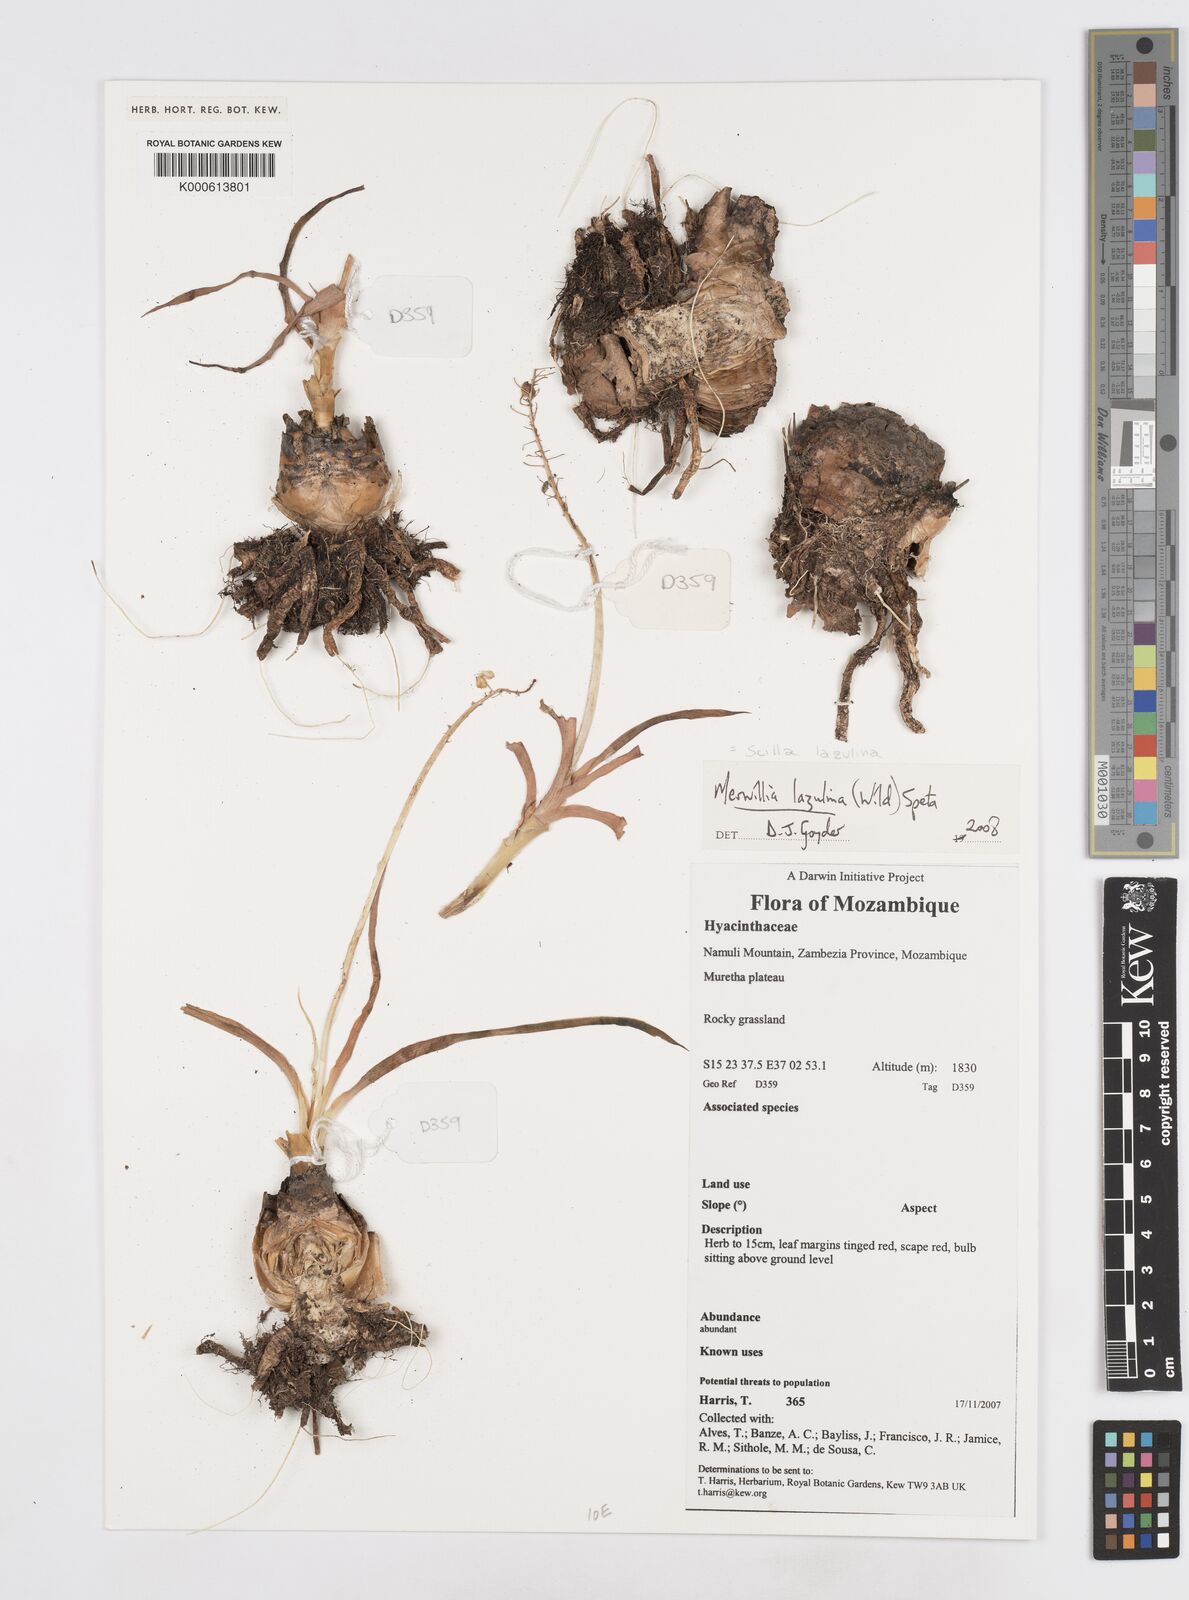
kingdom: Plantae
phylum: Tracheophyta
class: Liliopsida
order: Asparagales
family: Asparagaceae
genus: Merwilla
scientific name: Merwilla plumbea
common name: Blue-squill
